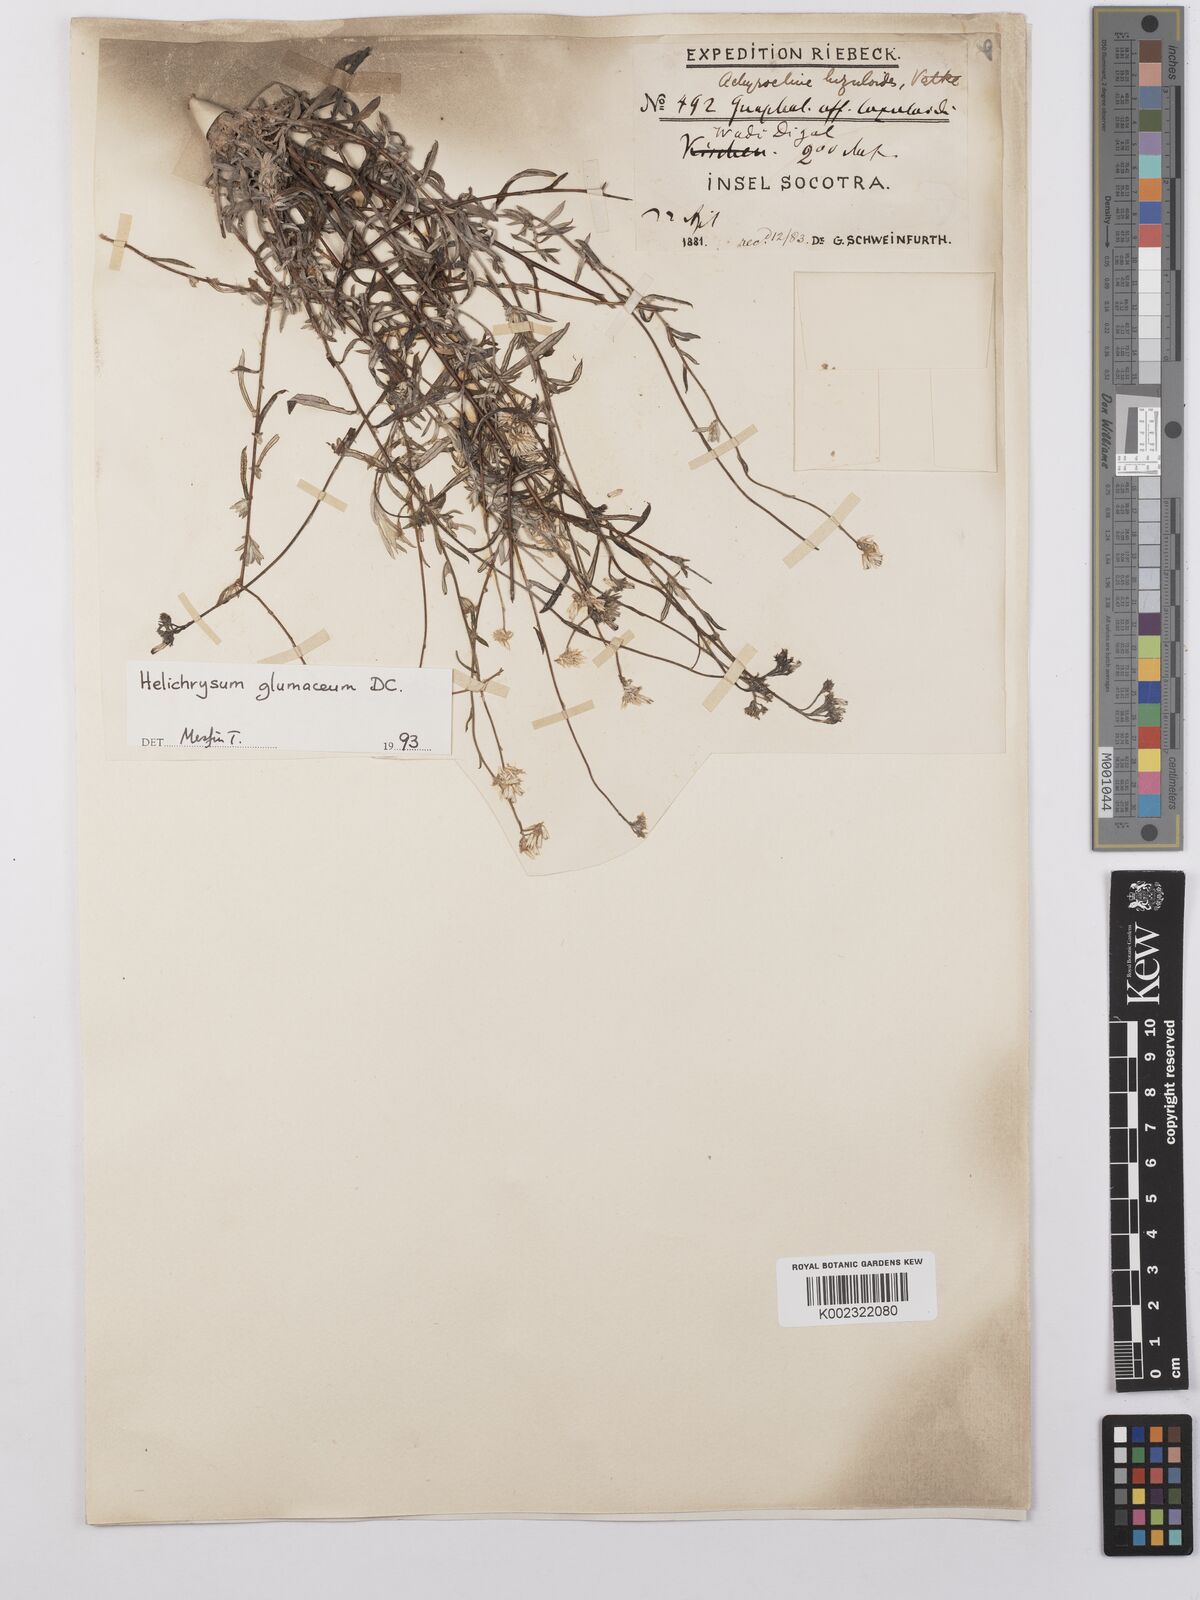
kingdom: Plantae
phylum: Tracheophyta
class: Magnoliopsida
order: Asterales
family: Asteraceae
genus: Helichrysum
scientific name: Helichrysum glumaceum
